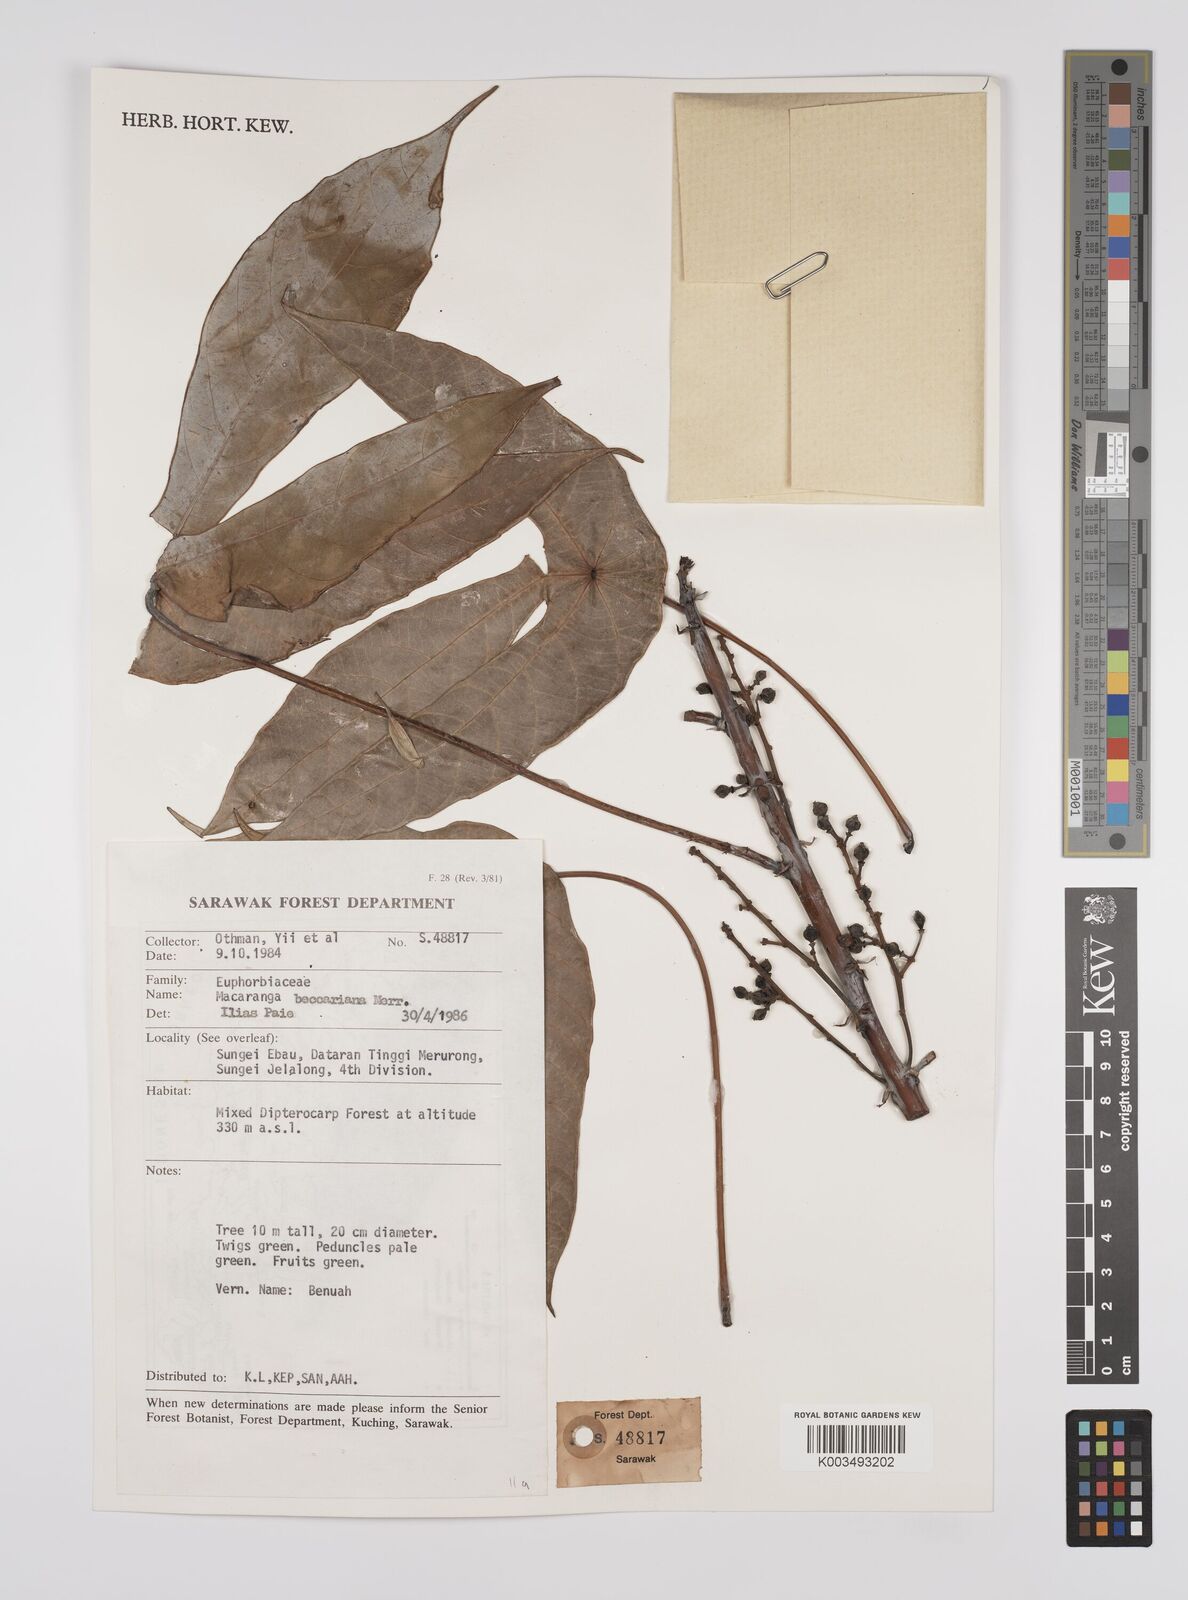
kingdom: Plantae
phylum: Tracheophyta
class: Magnoliopsida
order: Malpighiales
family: Euphorbiaceae
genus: Macaranga
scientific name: Macaranga beccariana
